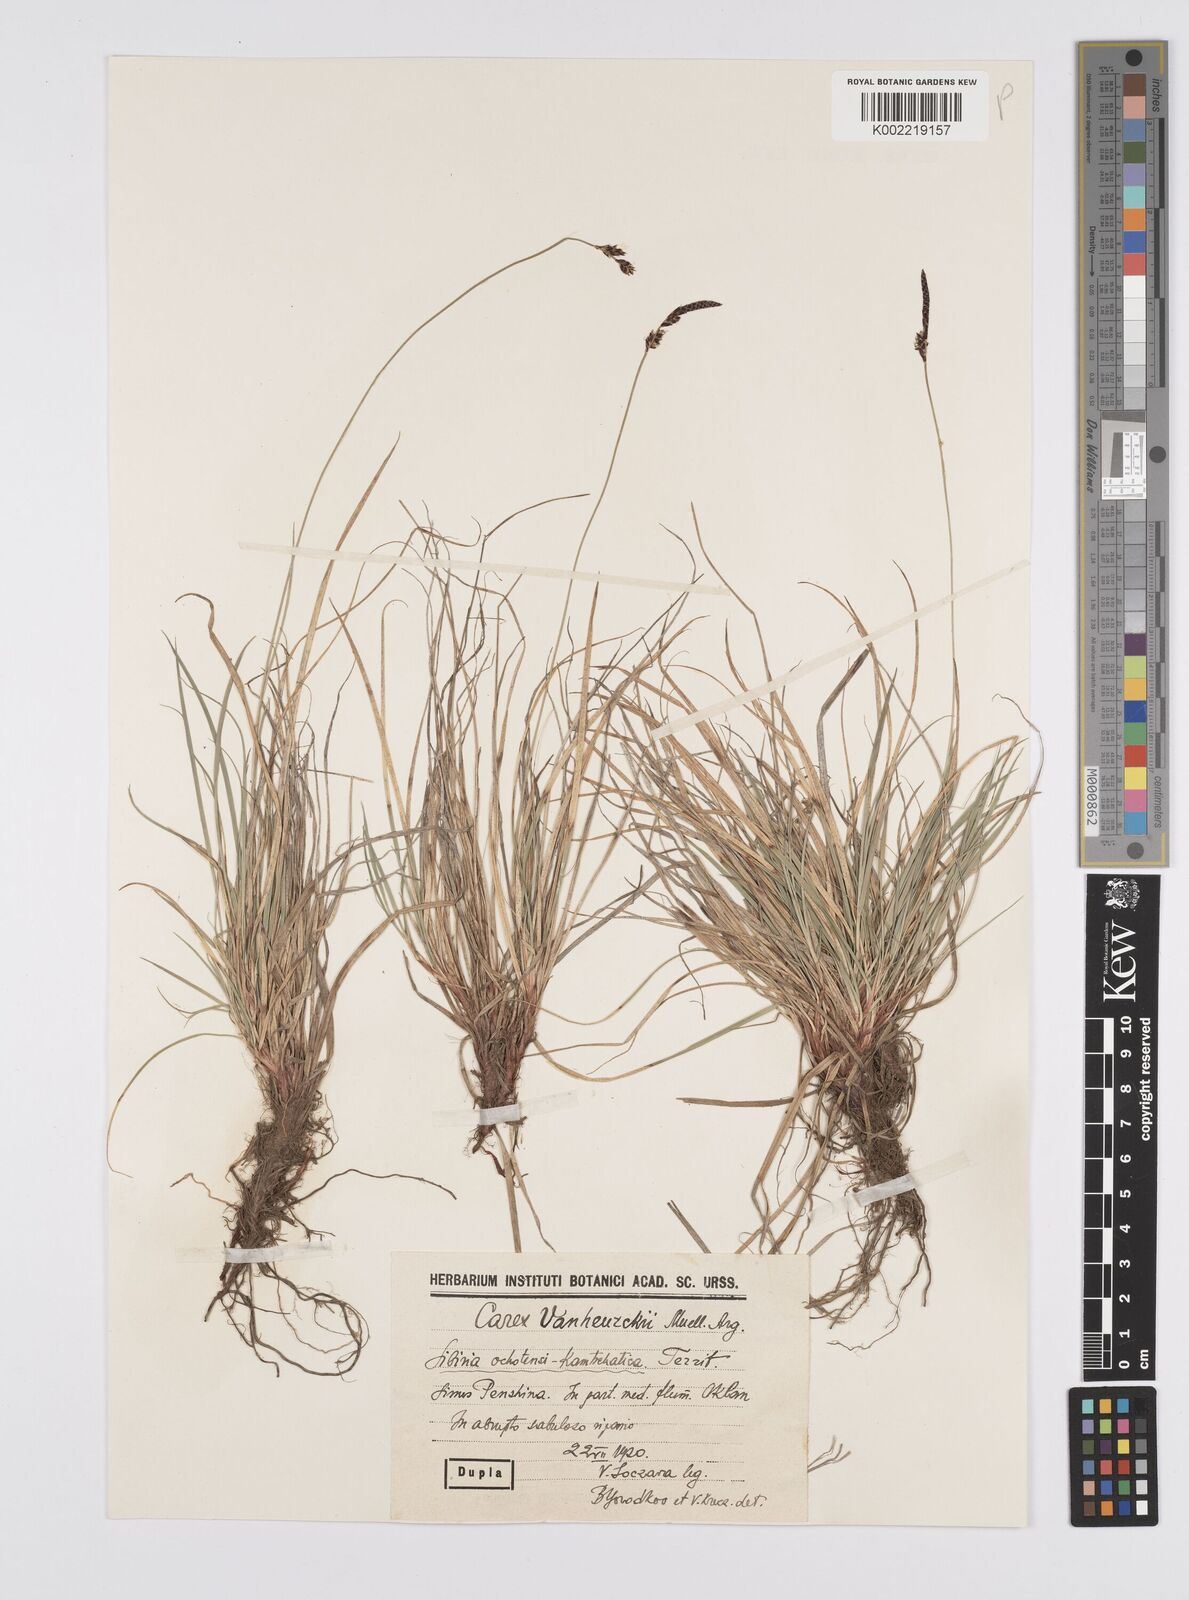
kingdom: Plantae
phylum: Tracheophyta
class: Liliopsida
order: Poales
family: Cyperaceae
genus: Carex
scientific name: Carex vanheurckii
